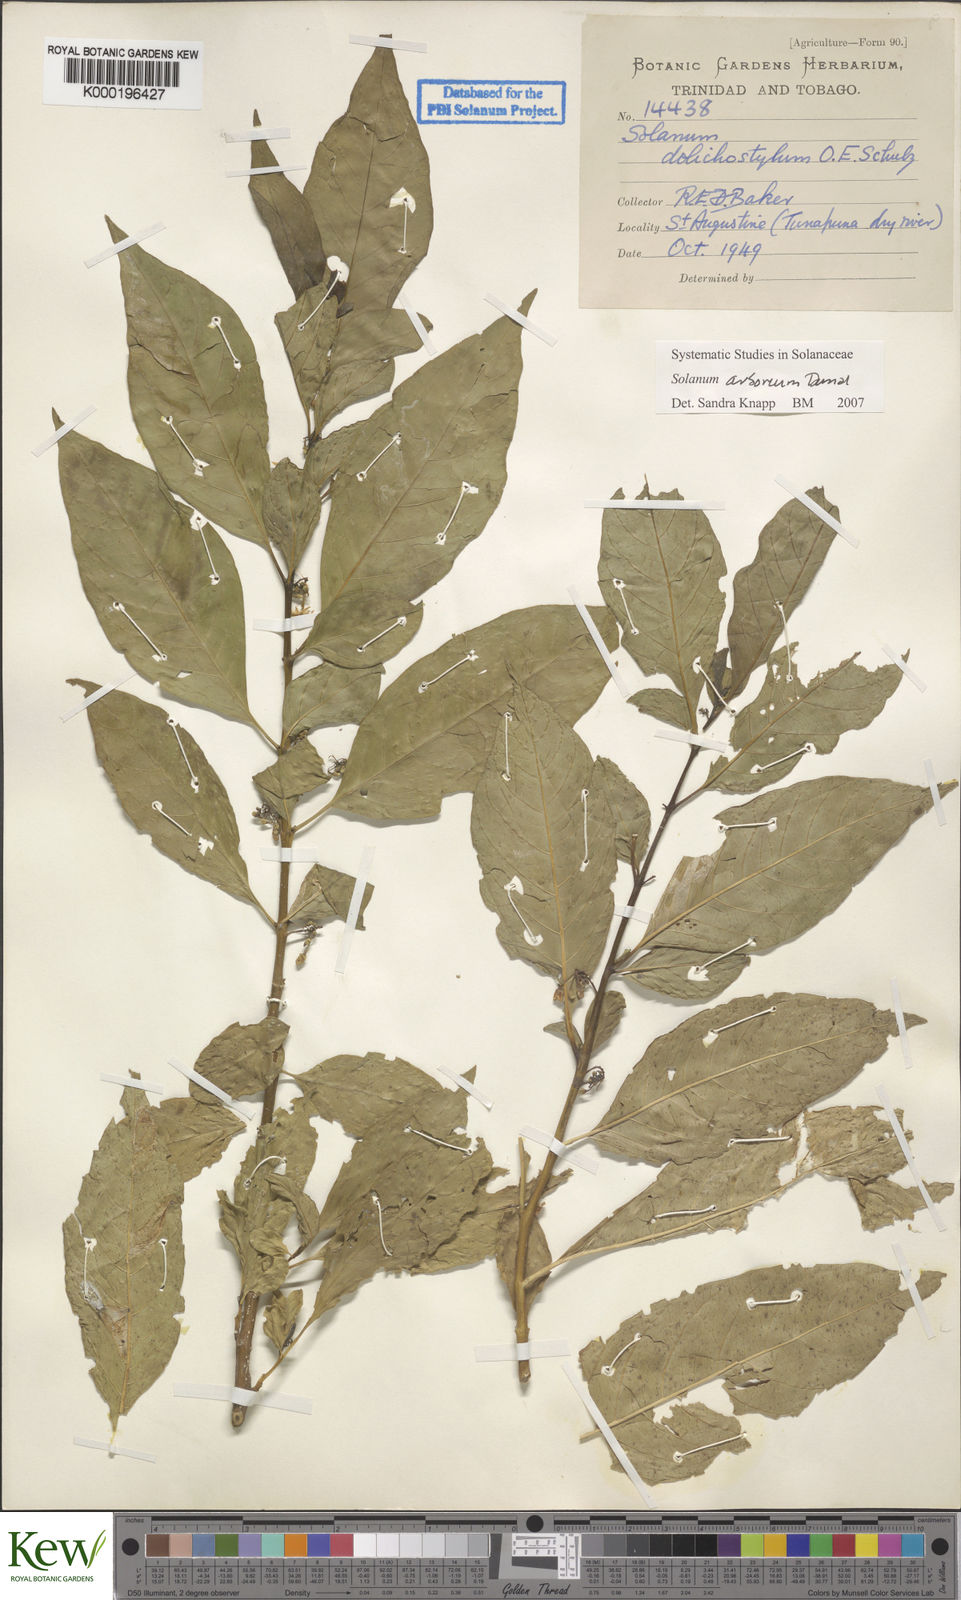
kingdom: Plantae
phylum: Tracheophyta
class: Magnoliopsida
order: Solanales
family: Solanaceae
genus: Solanum
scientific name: Solanum arboreum
